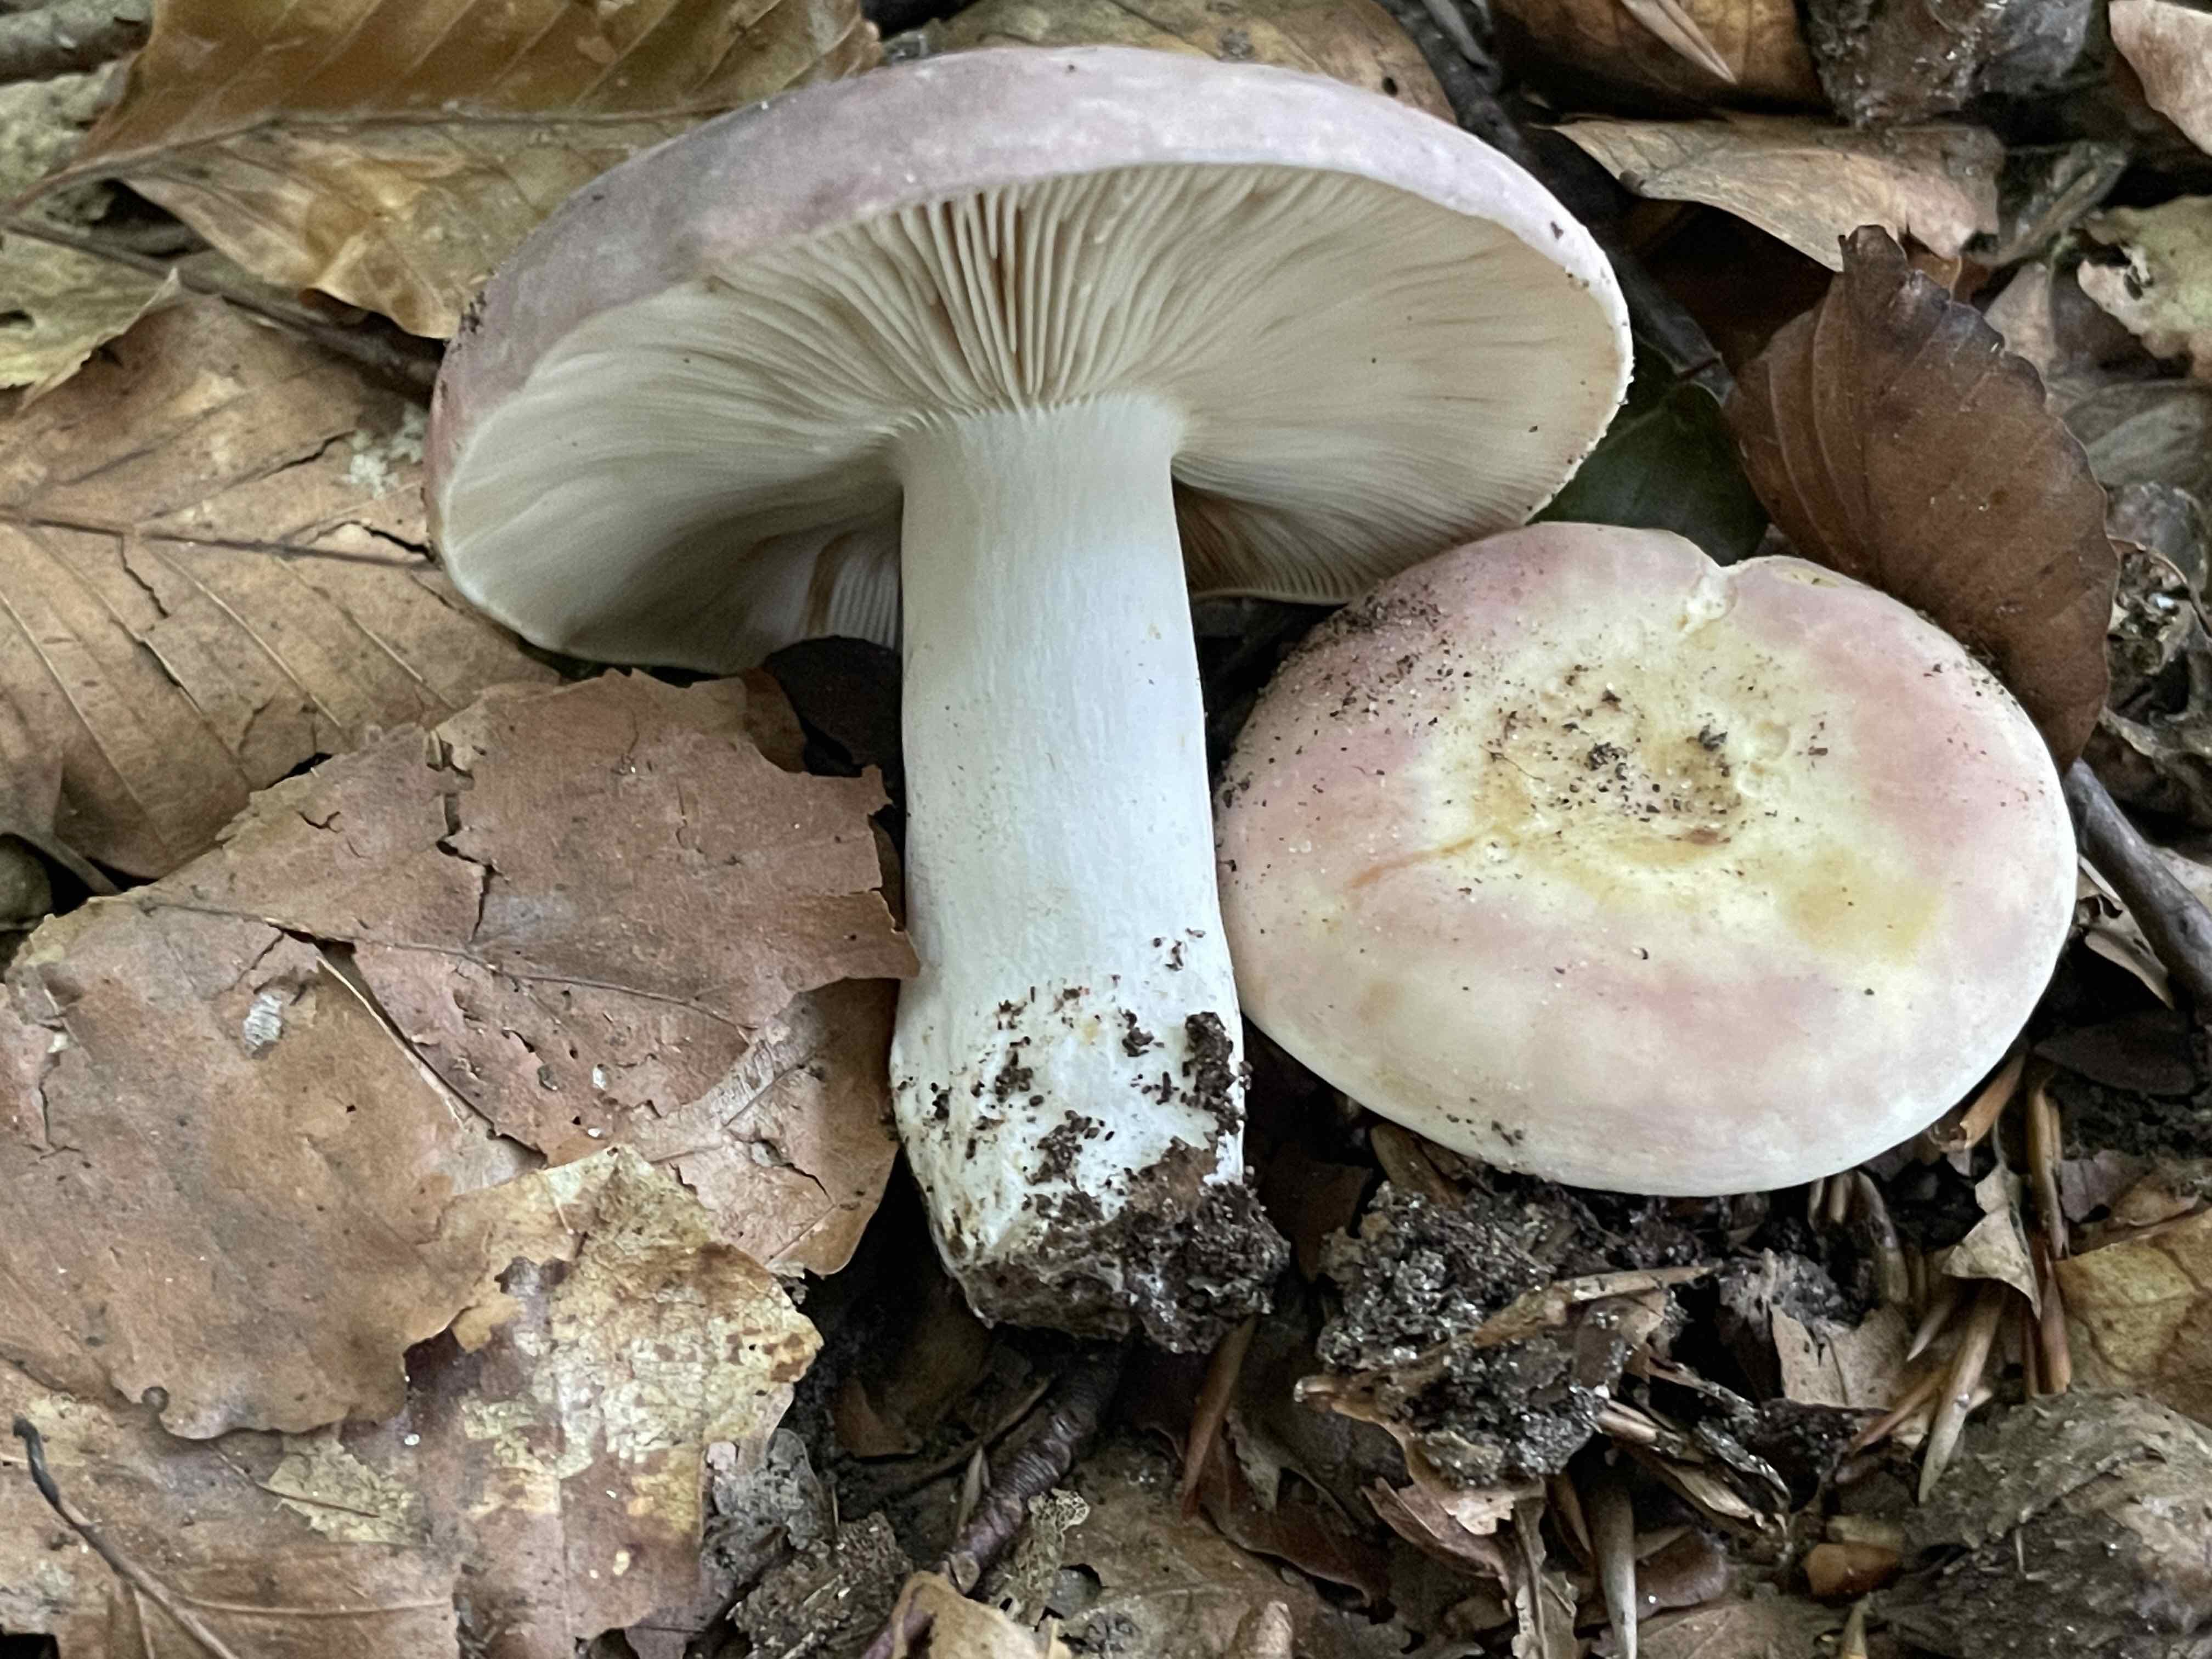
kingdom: Fungi
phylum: Basidiomycota
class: Agaricomycetes
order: Russulales
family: Russulaceae
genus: Russula
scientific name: Russula rosea
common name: fastkødet skørhat
